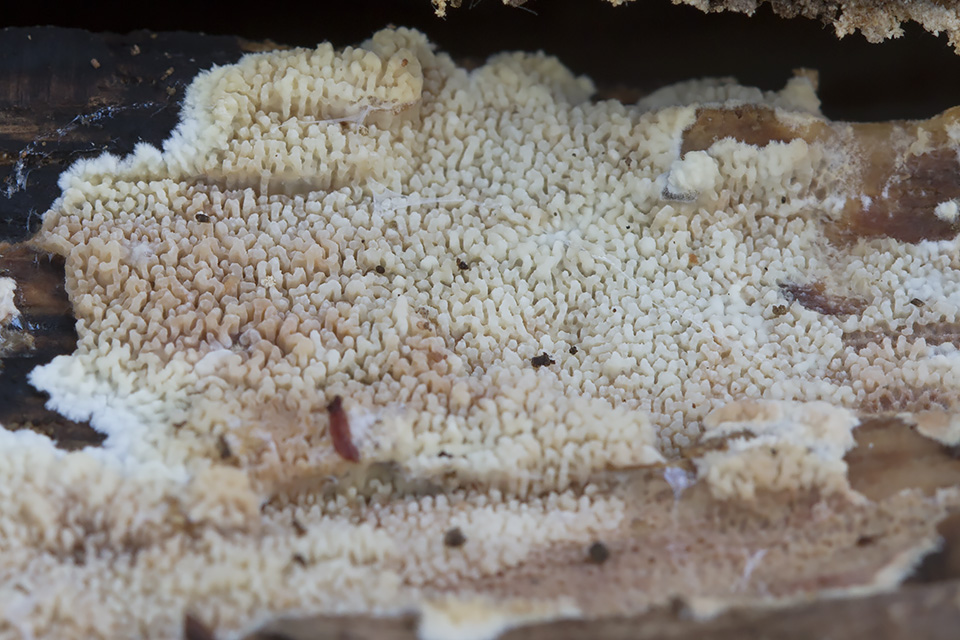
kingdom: Fungi
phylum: Basidiomycota
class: Agaricomycetes
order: Polyporales
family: Irpicaceae
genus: Crystallicutis
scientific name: Crystallicutis serpens
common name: gråviolet barkhinde
